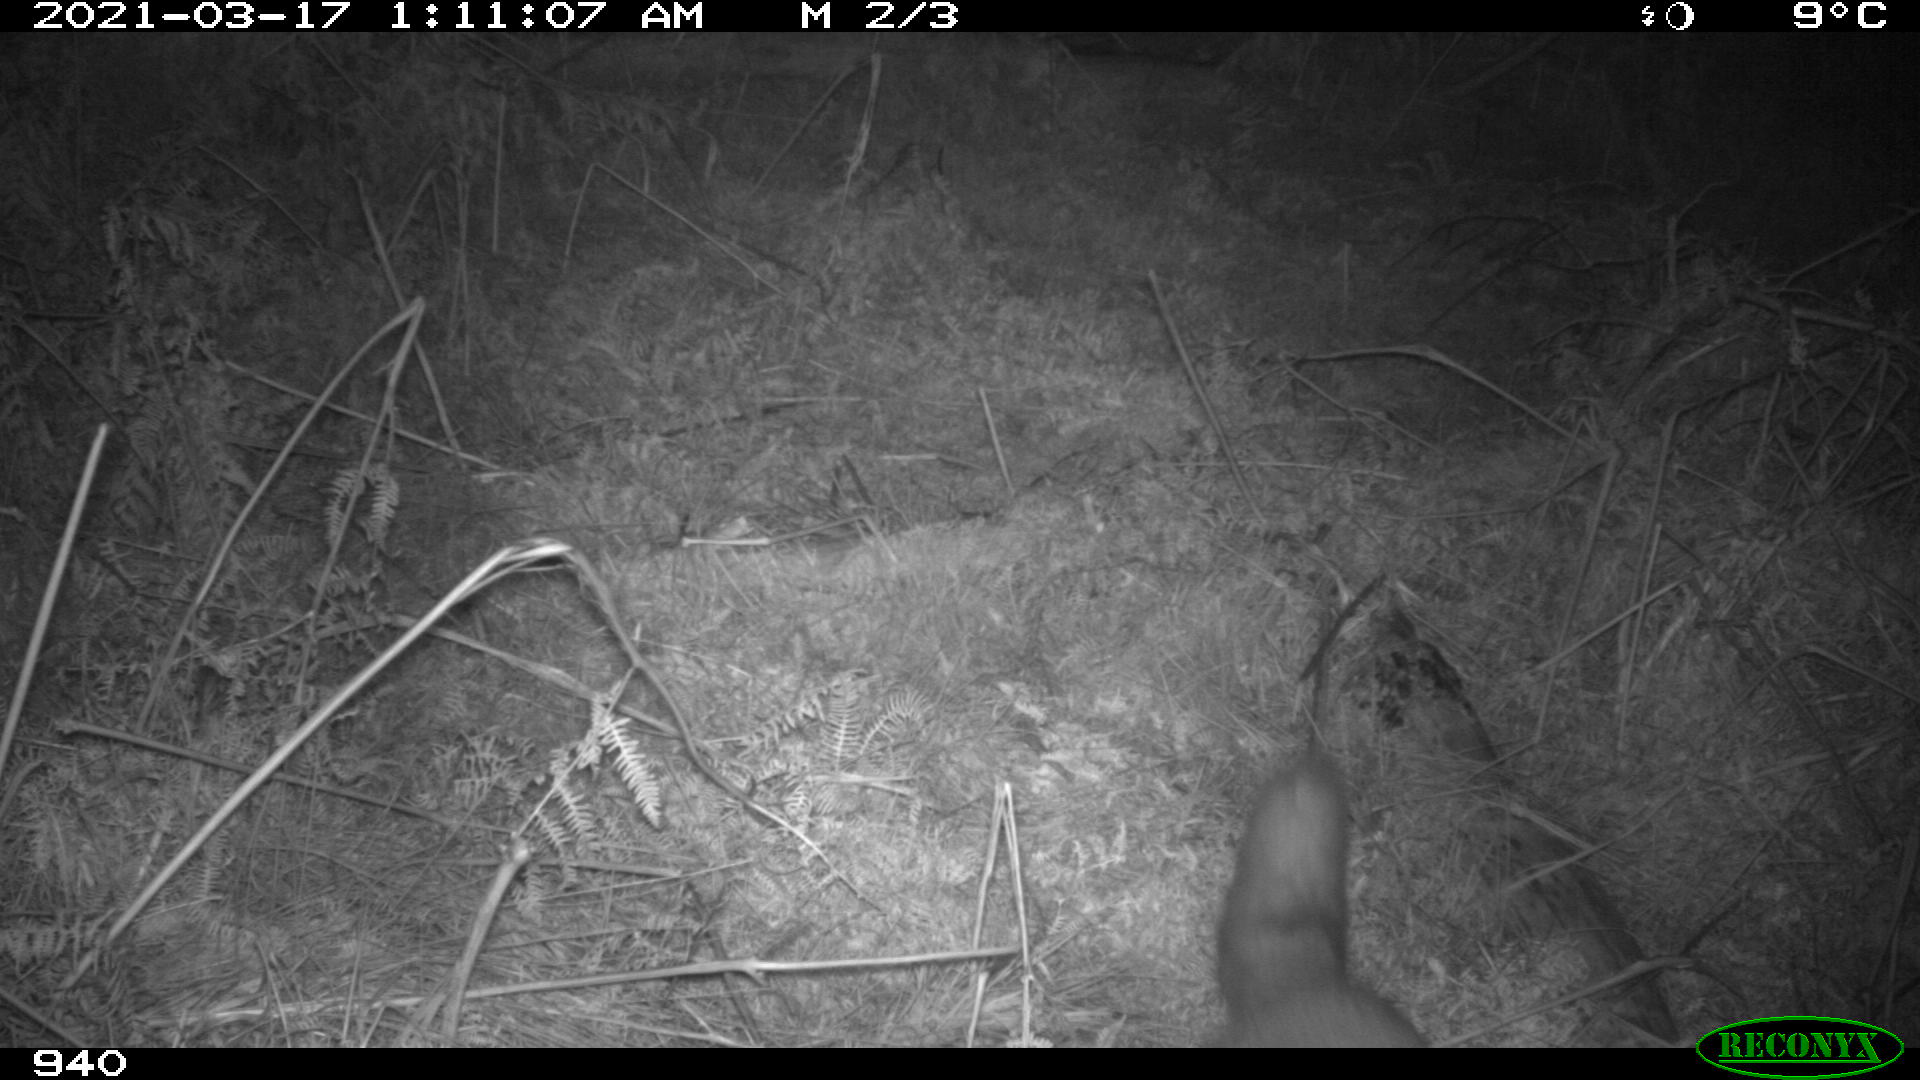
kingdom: Animalia
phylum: Chordata
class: Mammalia
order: Carnivora
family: Canidae
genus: Vulpes
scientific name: Vulpes vulpes
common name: Red fox
